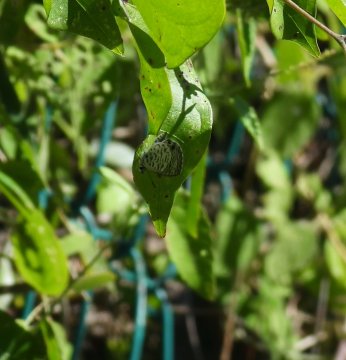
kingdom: Animalia
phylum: Arthropoda
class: Insecta
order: Lepidoptera
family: Lycaenidae
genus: Leptotes
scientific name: Leptotes cassius
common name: Cassius Blue
